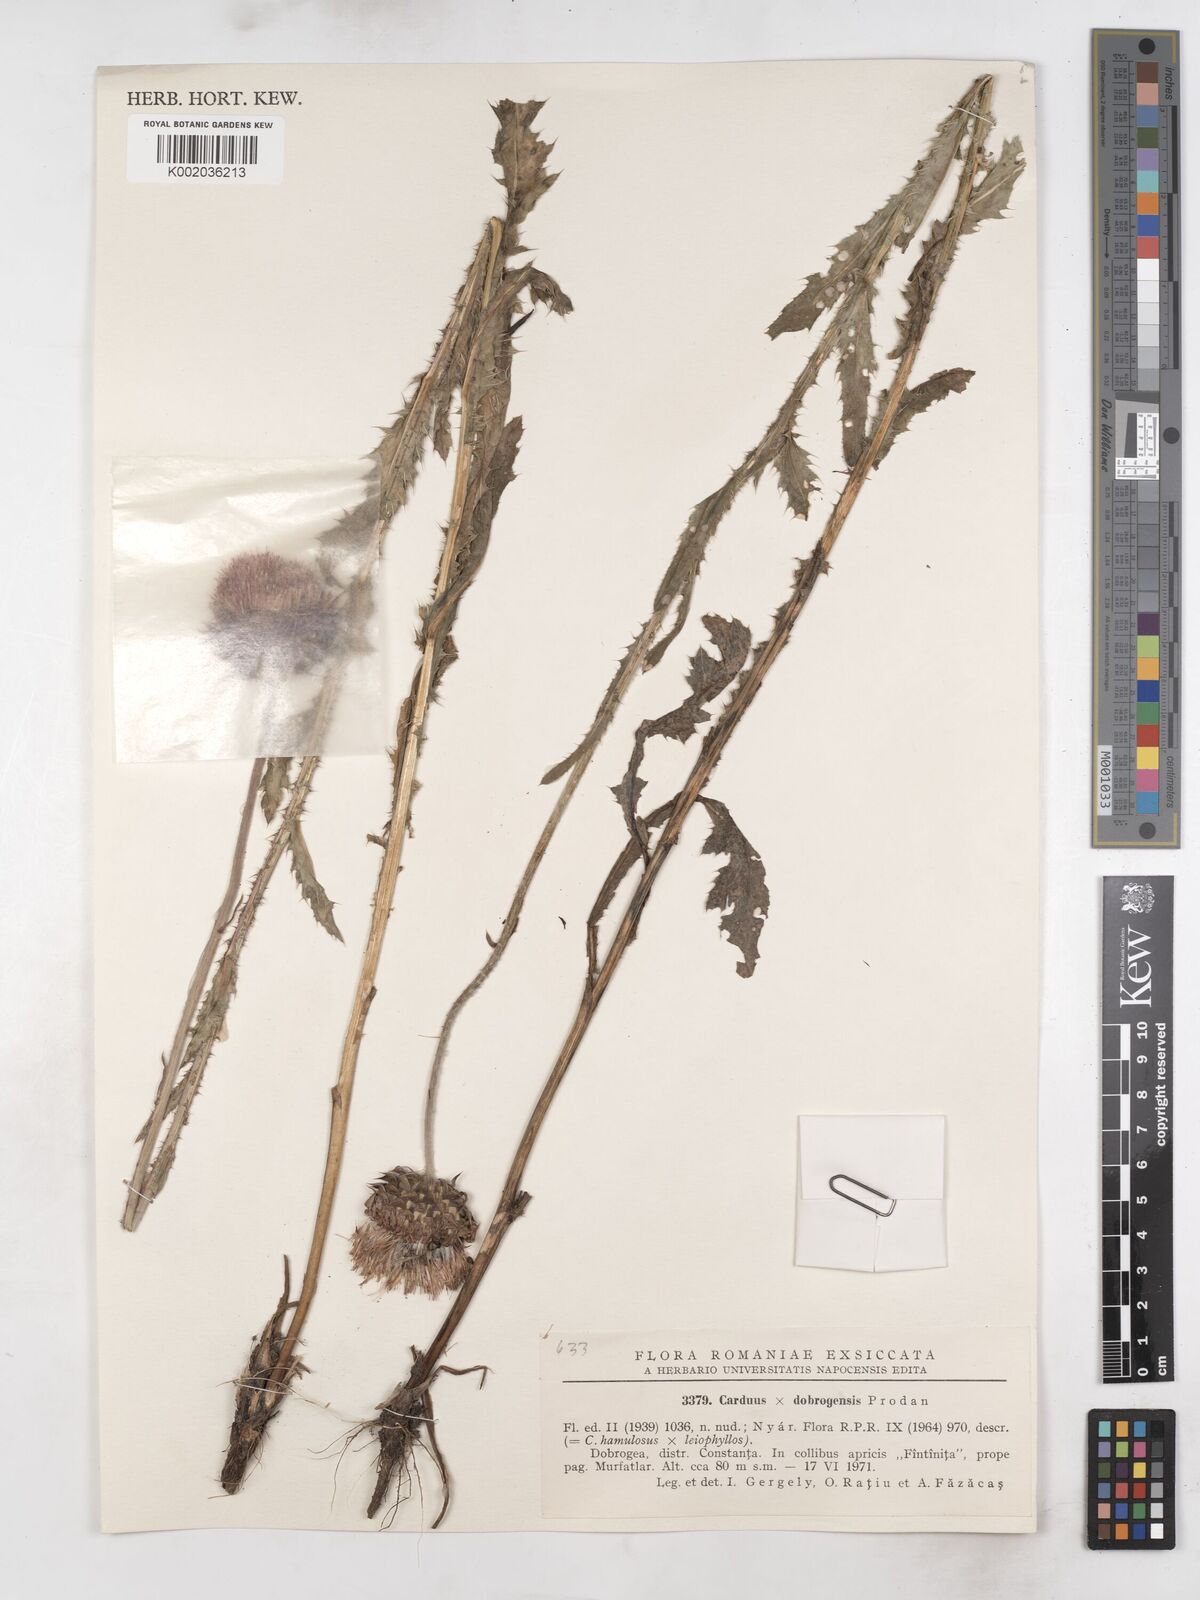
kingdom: Plantae
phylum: Tracheophyta
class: Magnoliopsida
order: Asterales
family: Asteraceae
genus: Carduus
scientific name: Carduus intercedens
